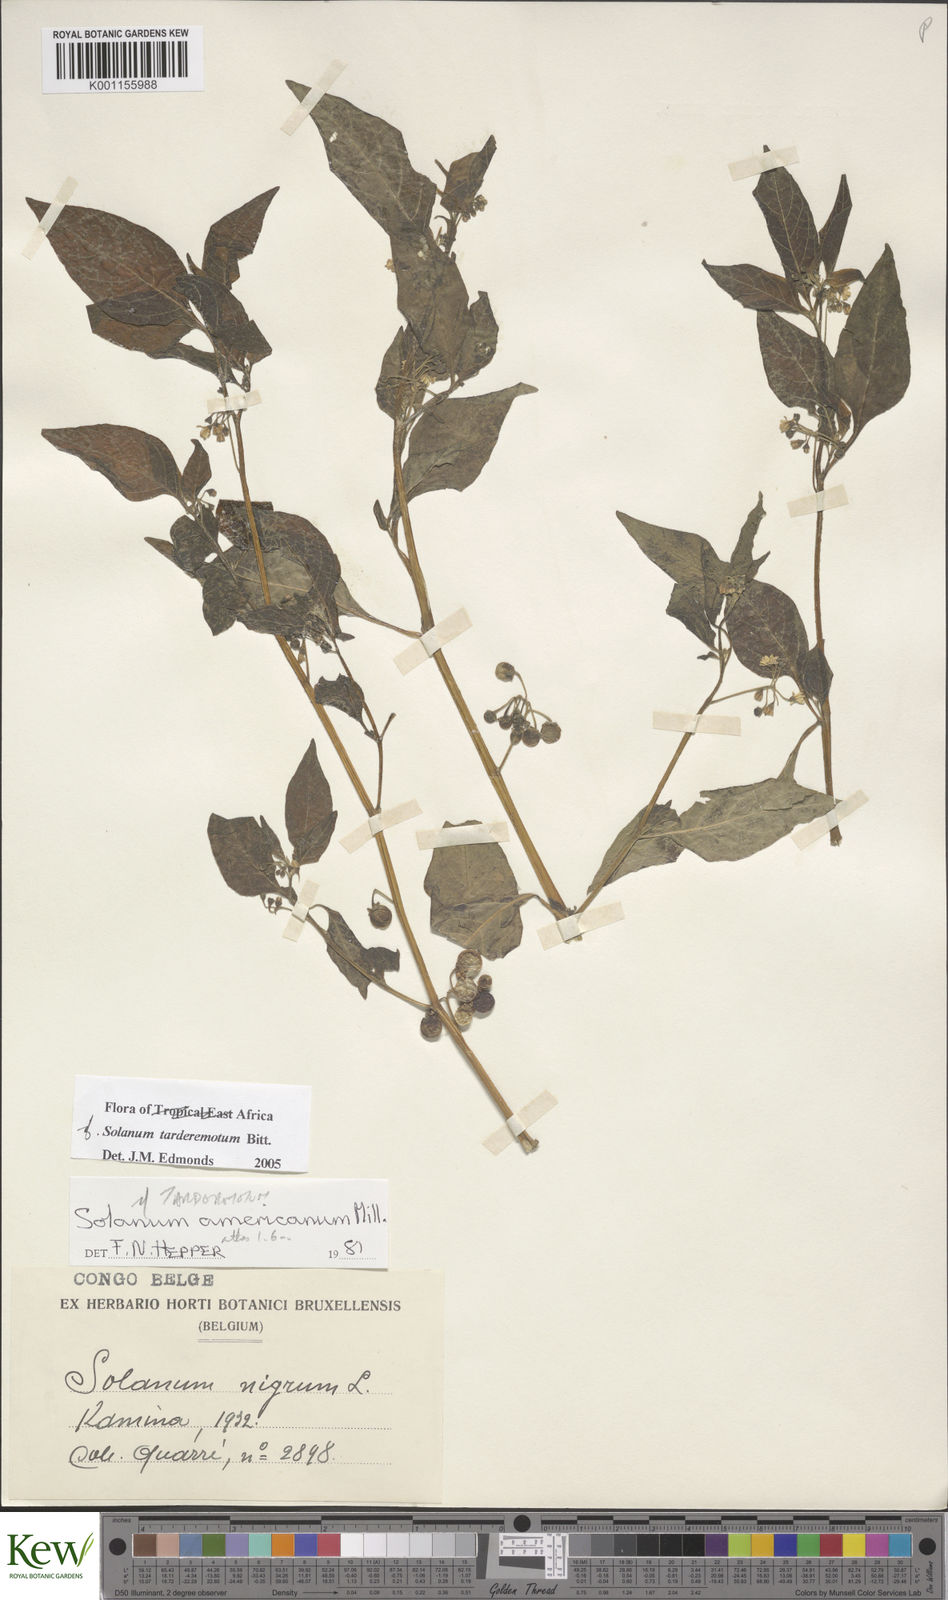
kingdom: Plantae
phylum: Tracheophyta
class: Magnoliopsida
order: Solanales
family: Solanaceae
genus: Solanum
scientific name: Solanum tarderemotum
